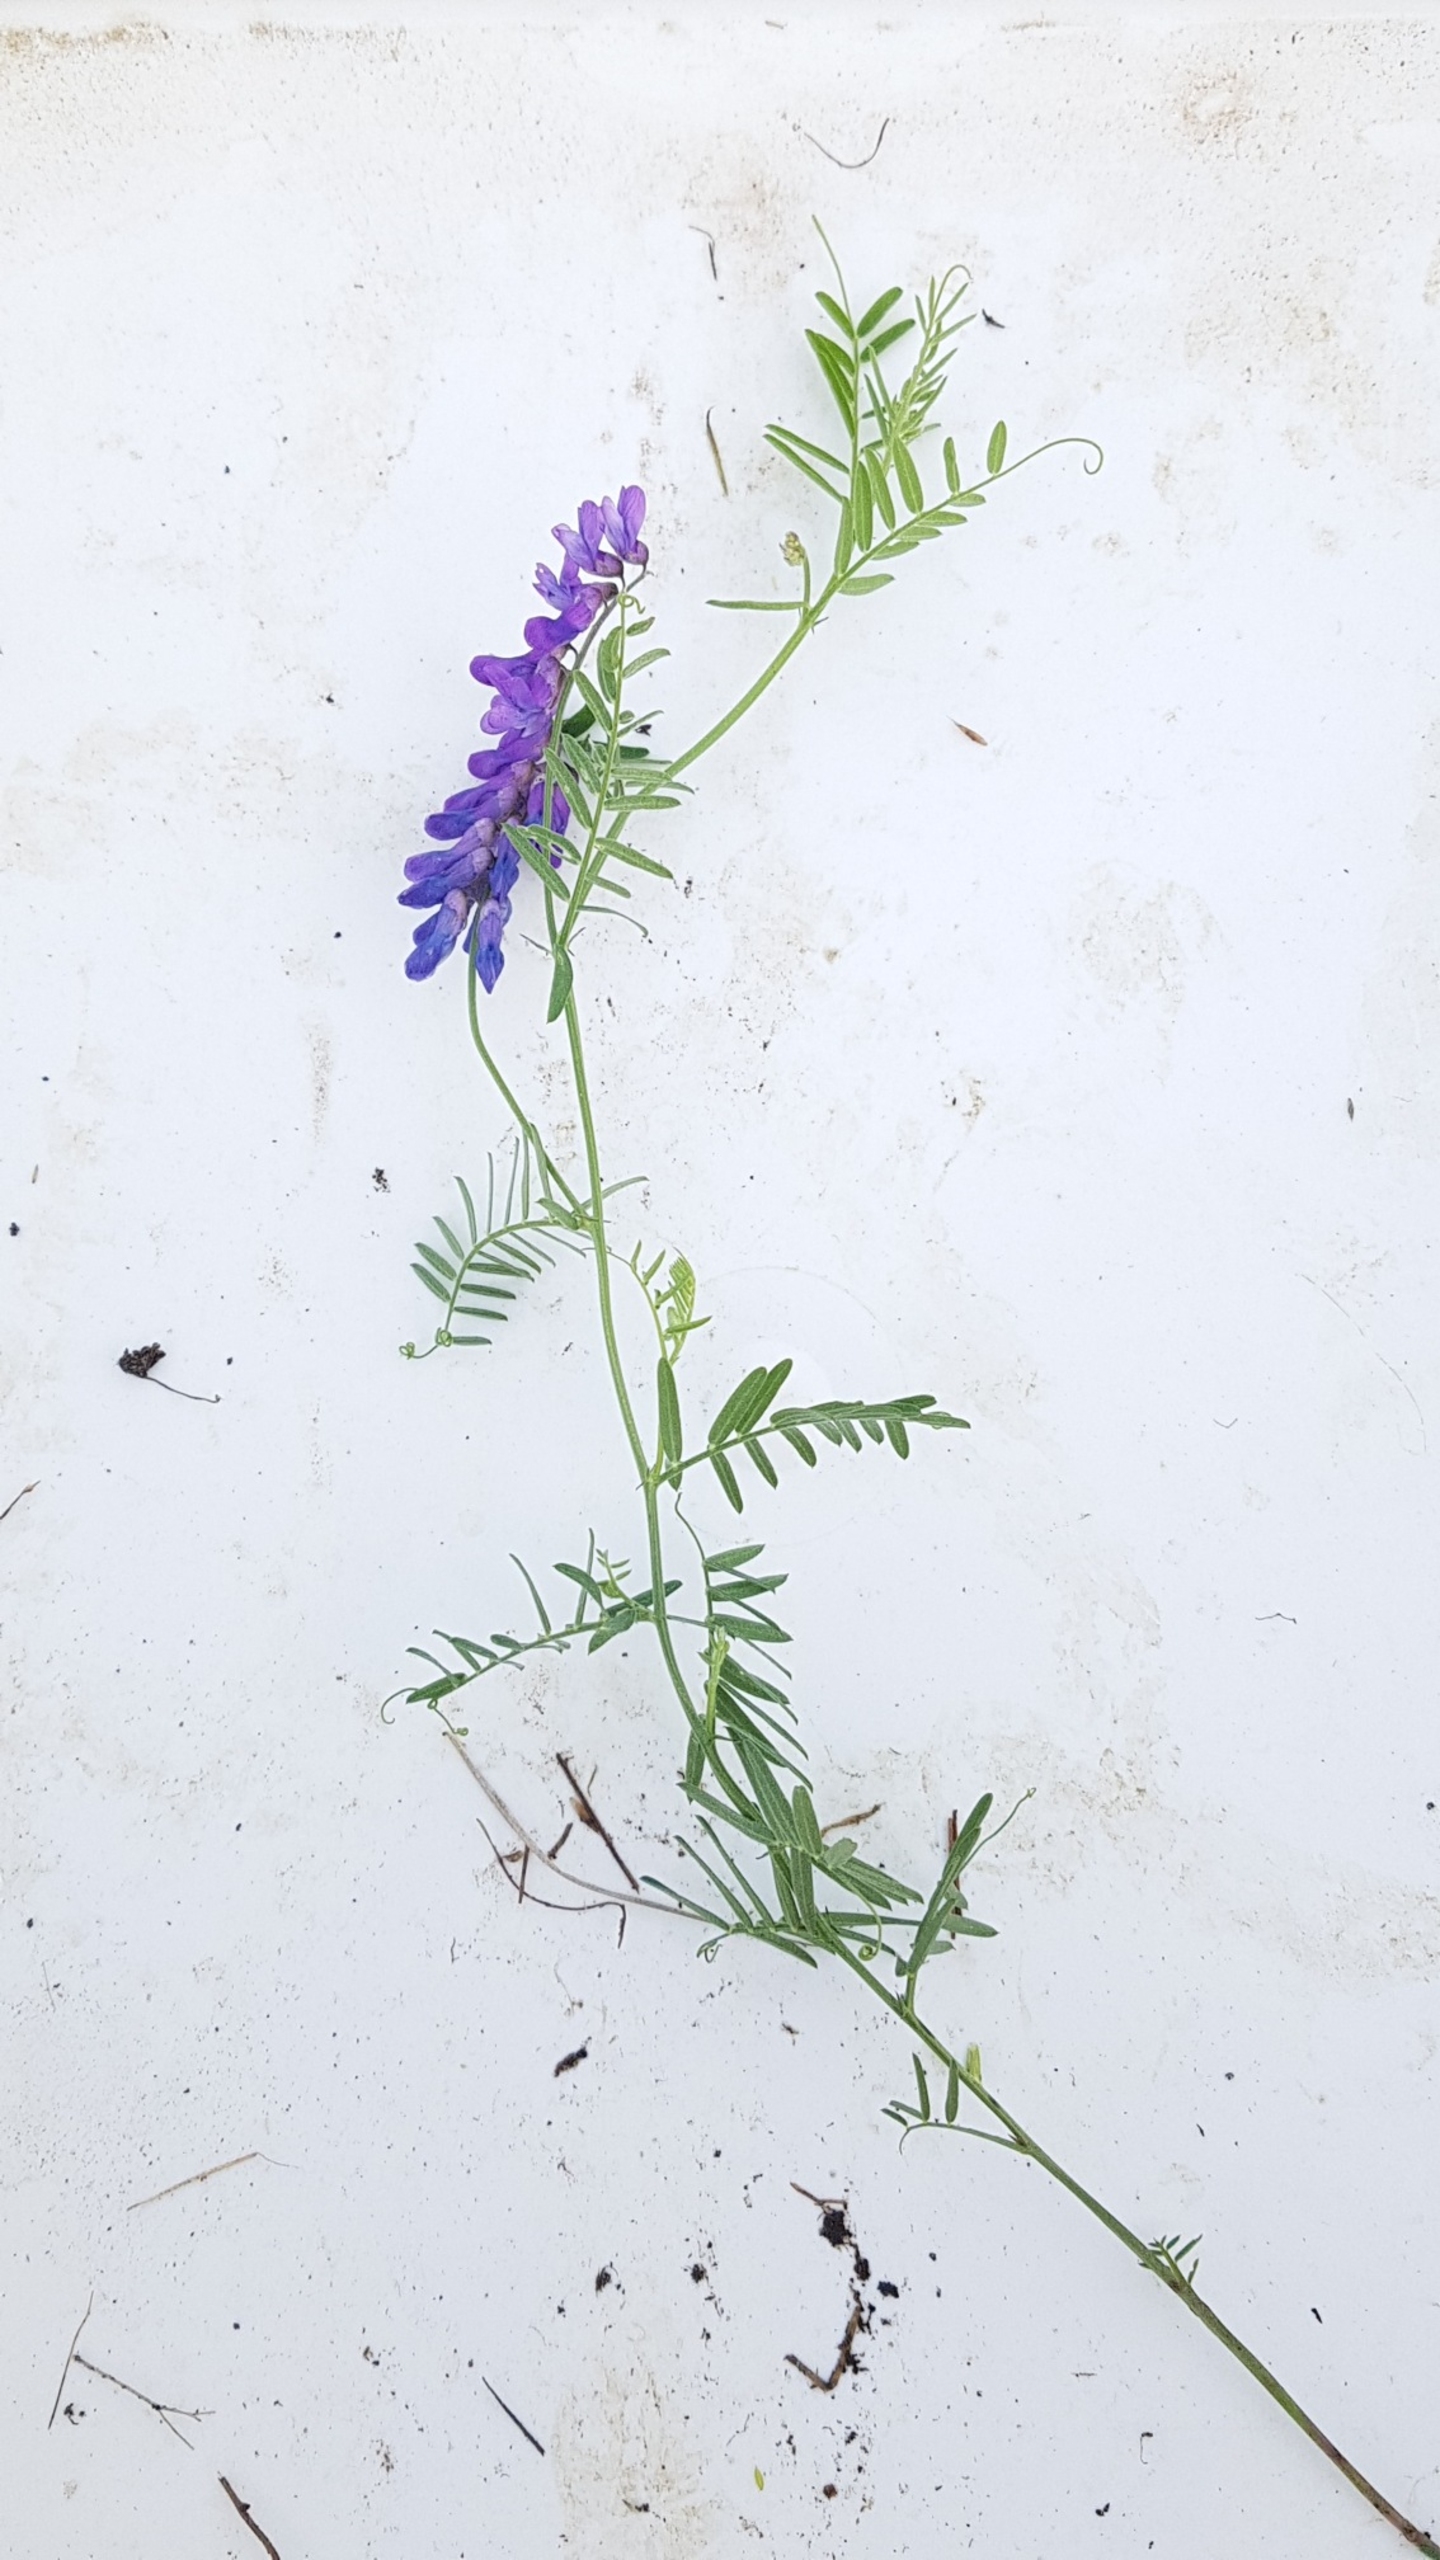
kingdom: Plantae
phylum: Tracheophyta
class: Magnoliopsida
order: Fabales
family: Fabaceae
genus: Vicia
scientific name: Vicia cracca
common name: Muse-vikke
